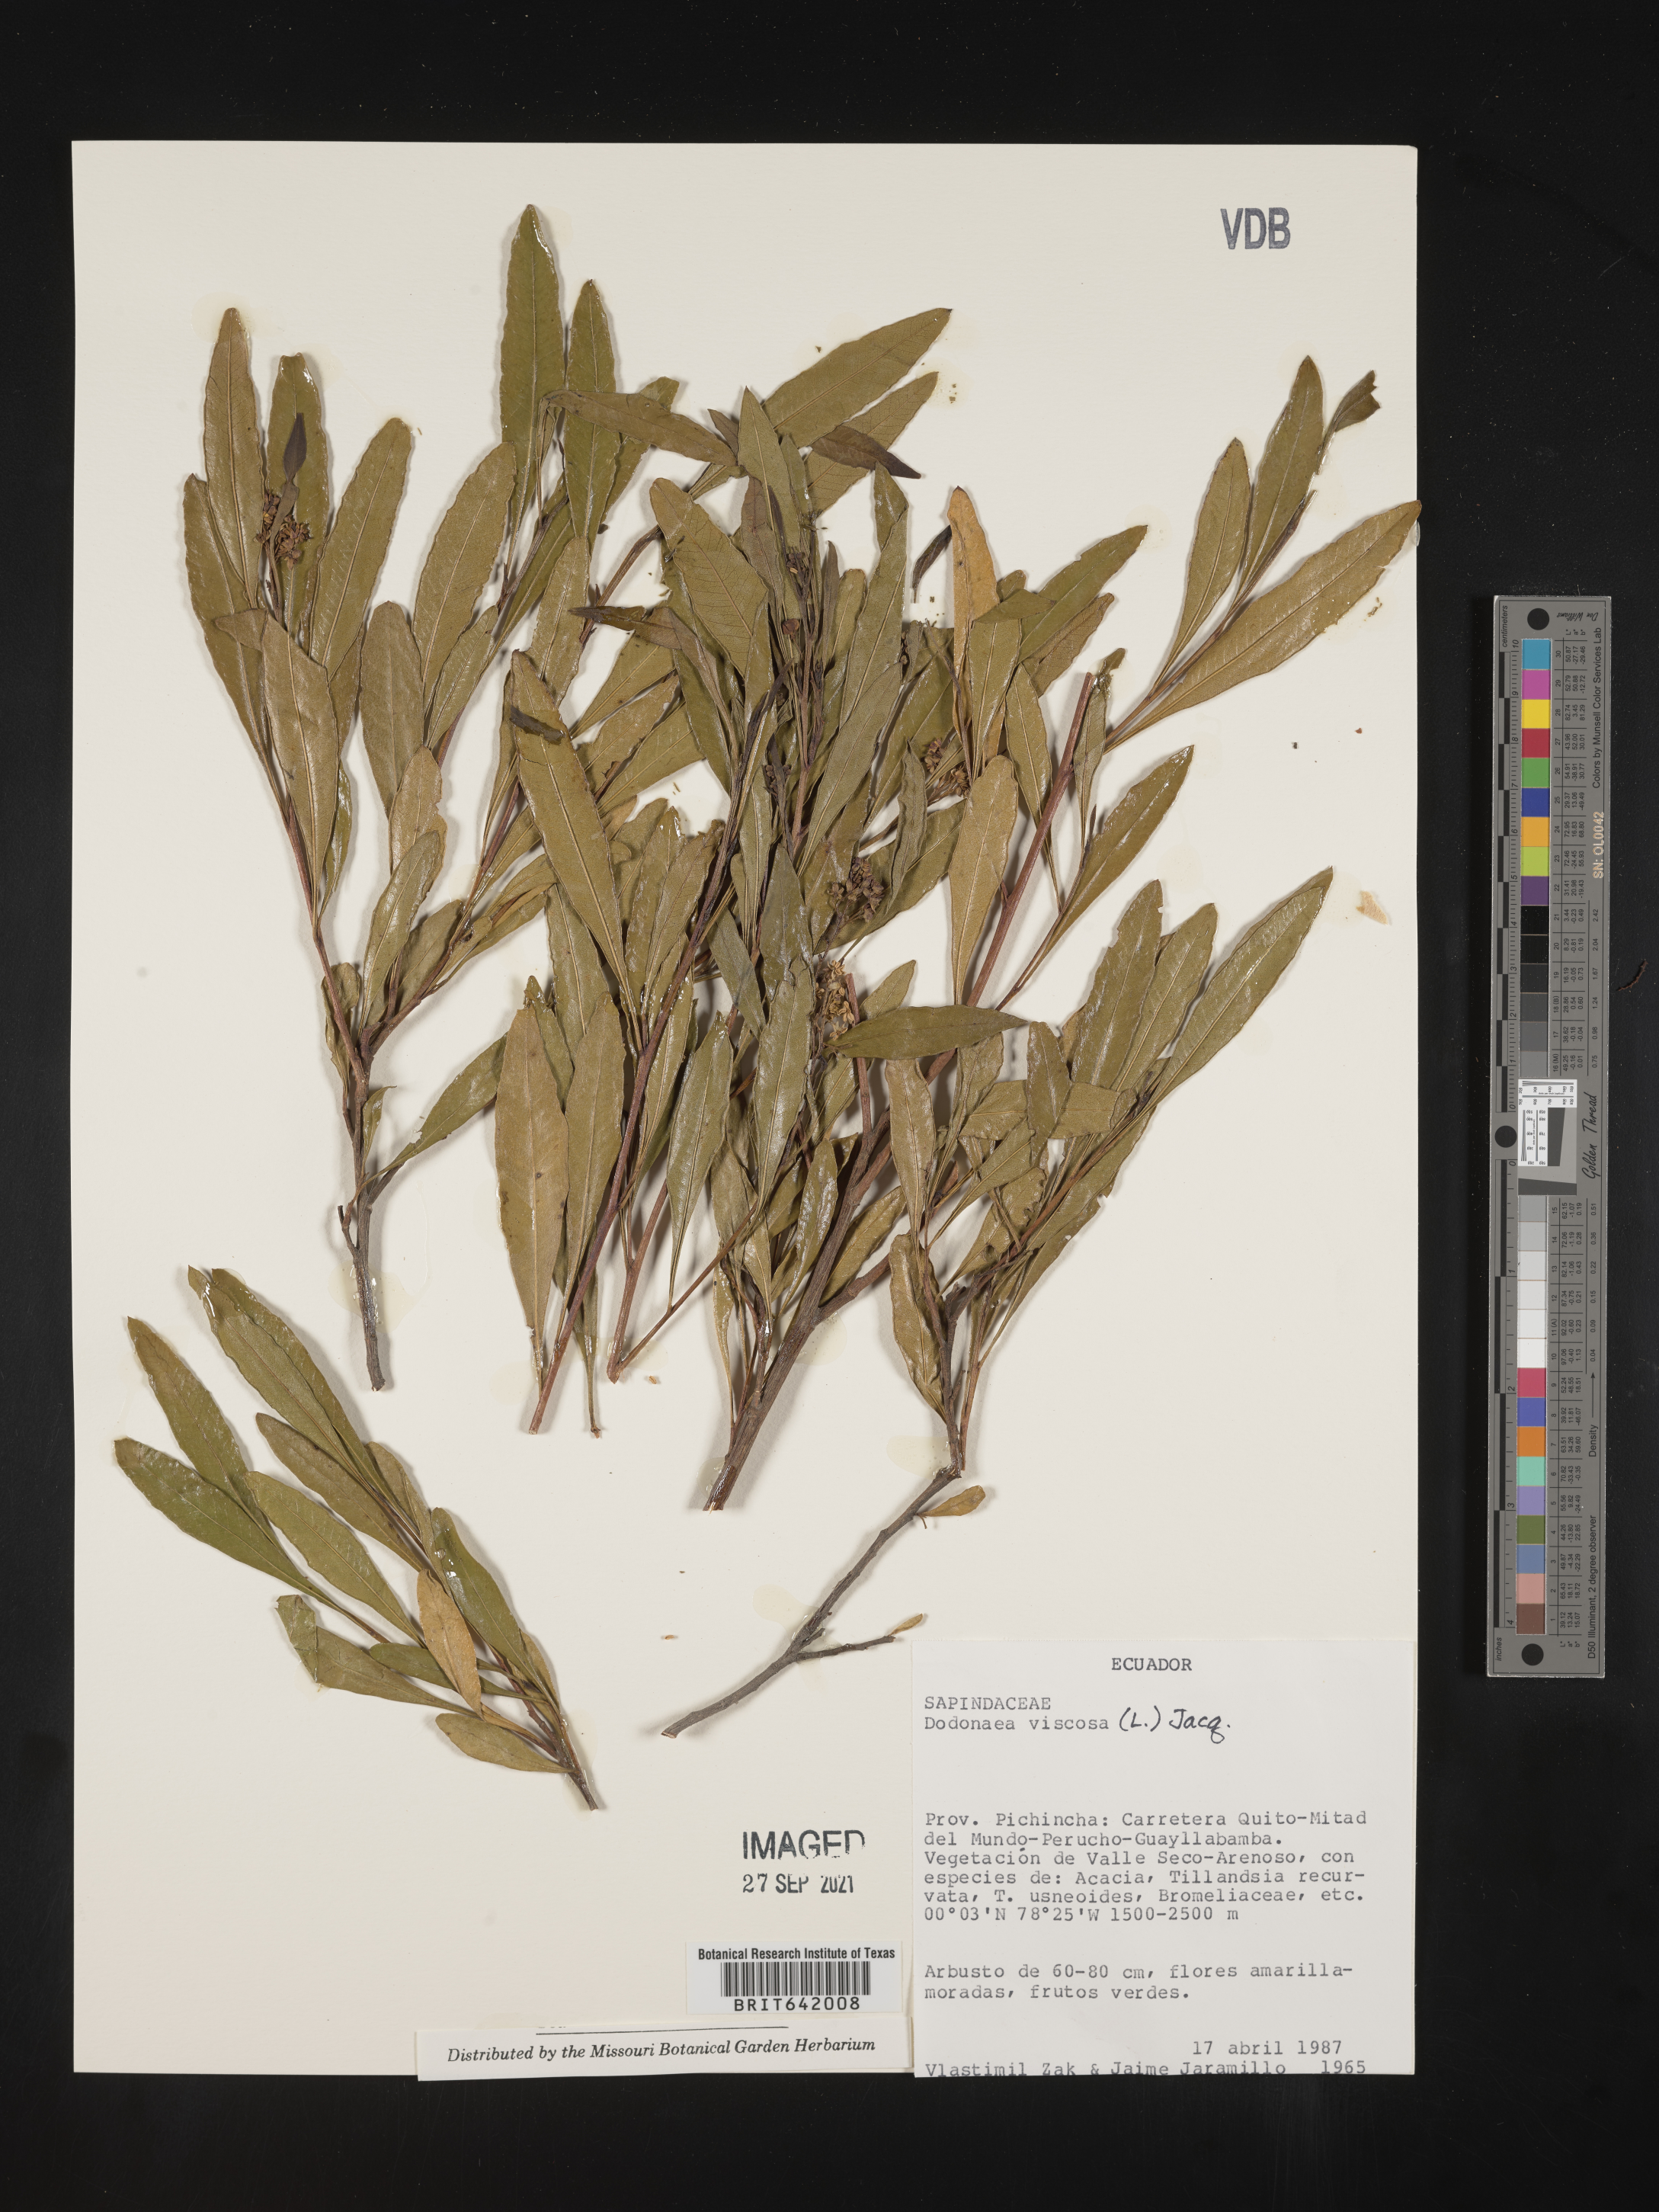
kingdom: Plantae
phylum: Tracheophyta
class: Magnoliopsida
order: Sapindales
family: Sapindaceae
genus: Dodonaea
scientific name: Dodonaea
